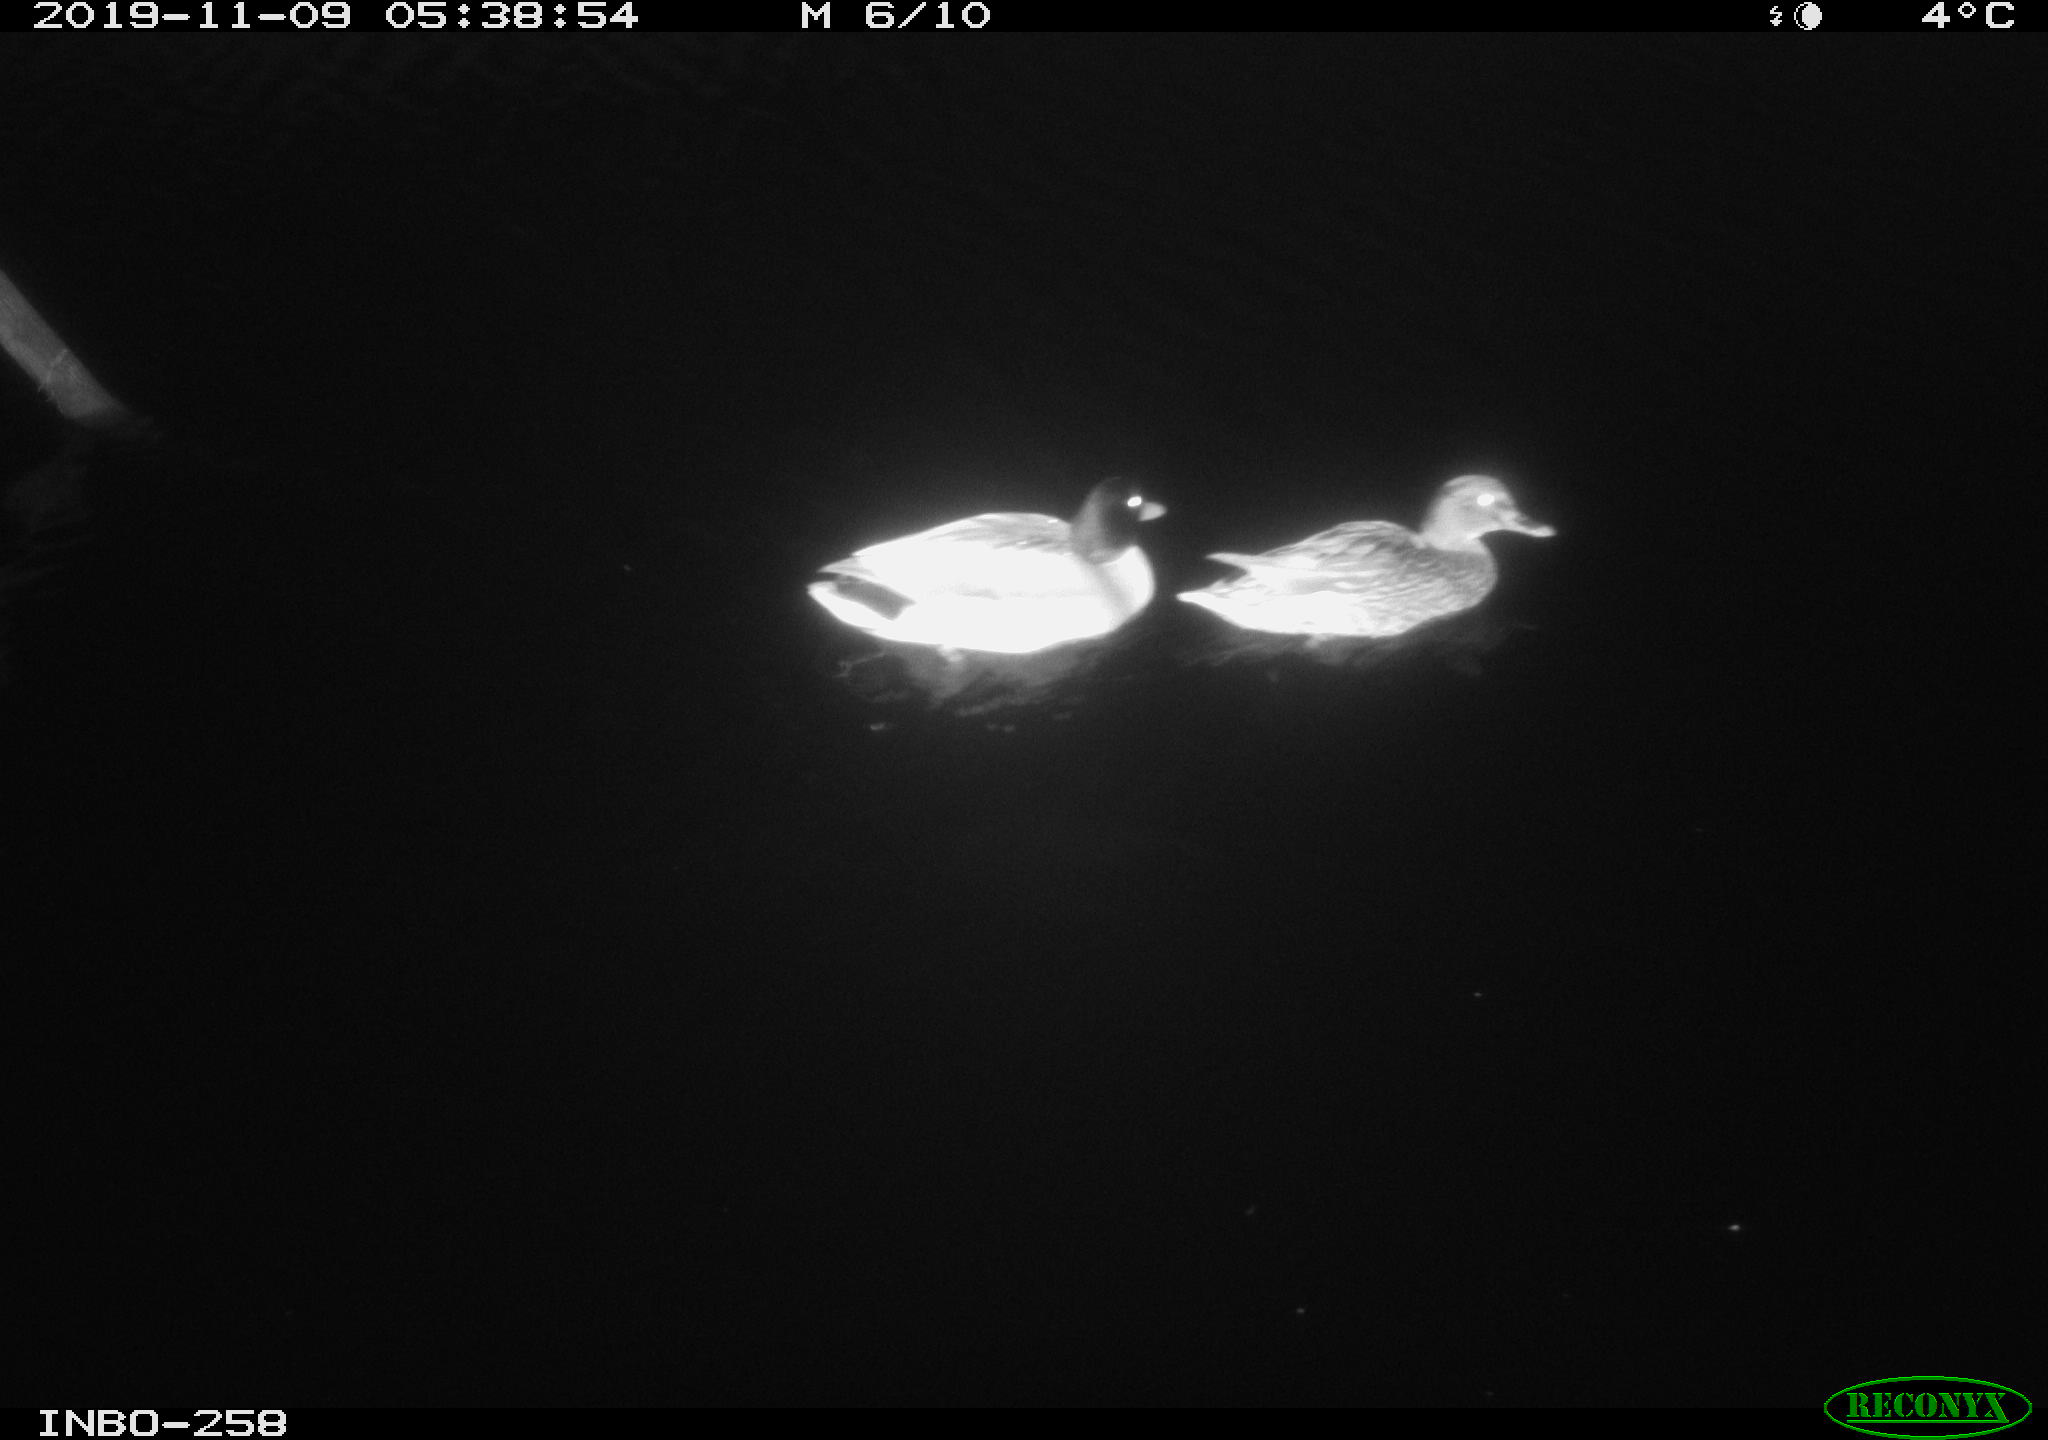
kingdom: Animalia
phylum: Chordata
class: Aves
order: Anseriformes
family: Anatidae
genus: Anas
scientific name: Anas platyrhynchos
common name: Mallard
